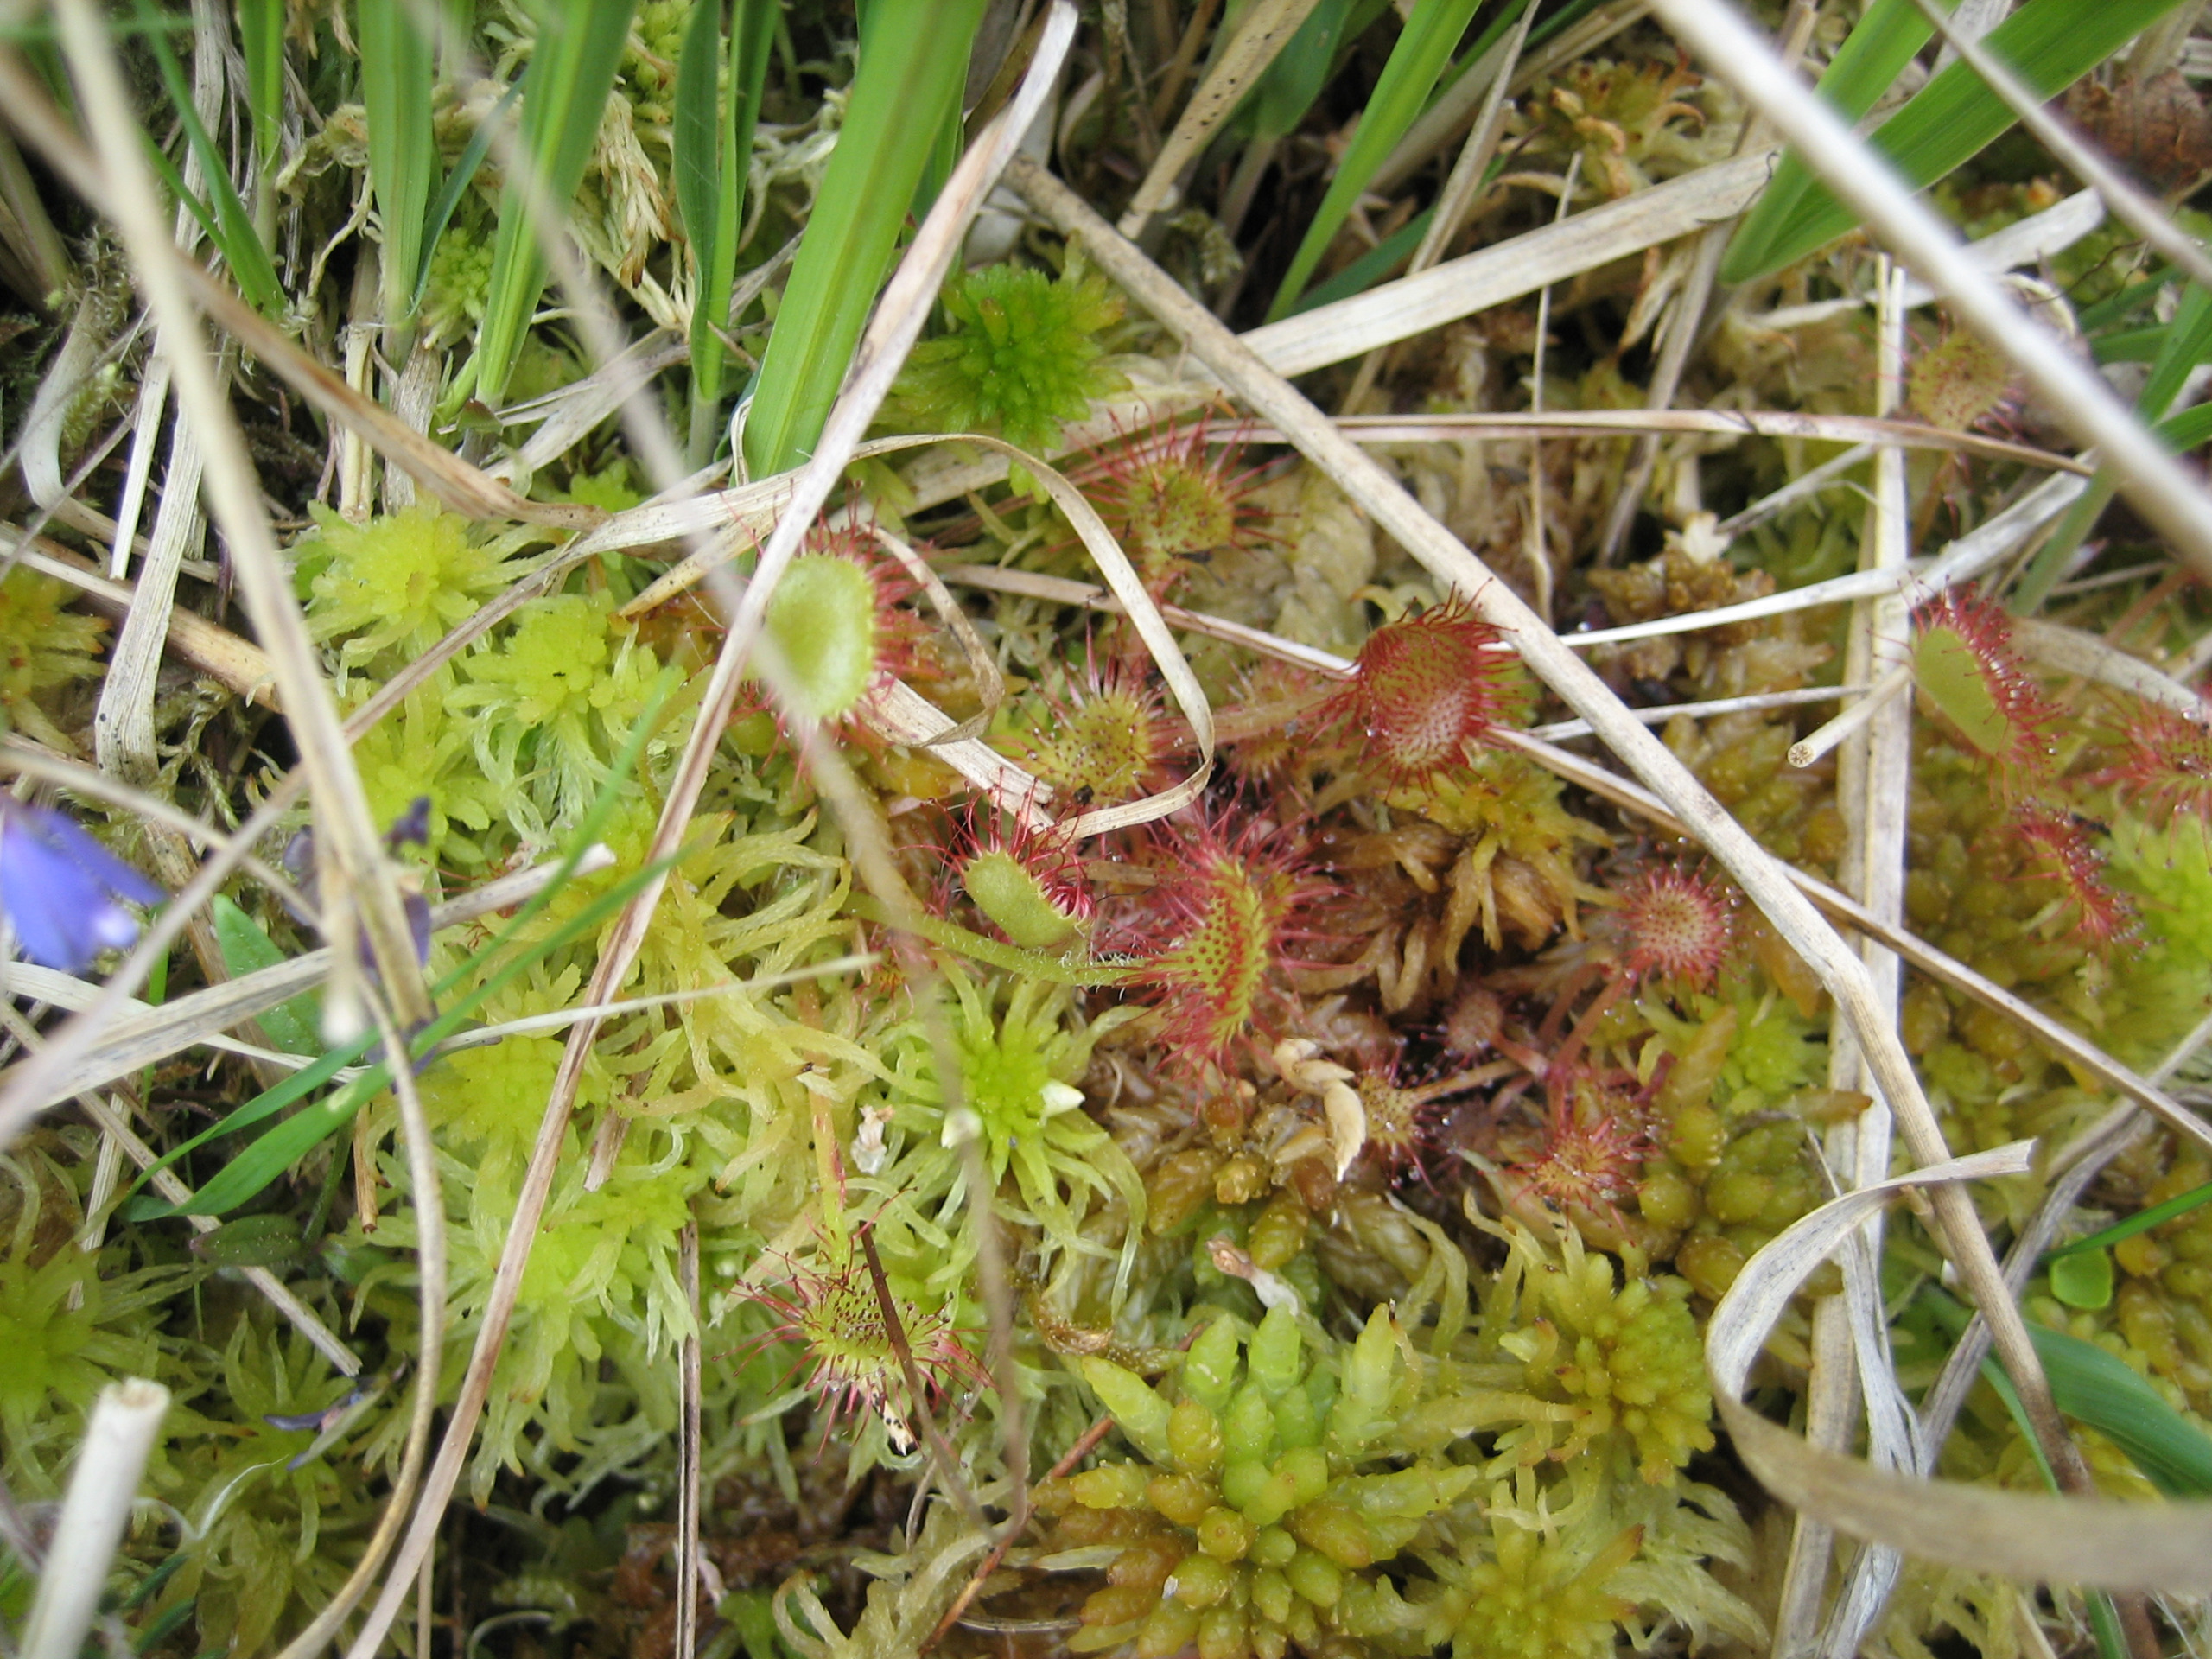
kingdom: Plantae
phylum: Tracheophyta
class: Magnoliopsida
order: Caryophyllales
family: Droseraceae
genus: Drosera
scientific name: Drosera rotundifolia
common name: Rundbladet soldug
